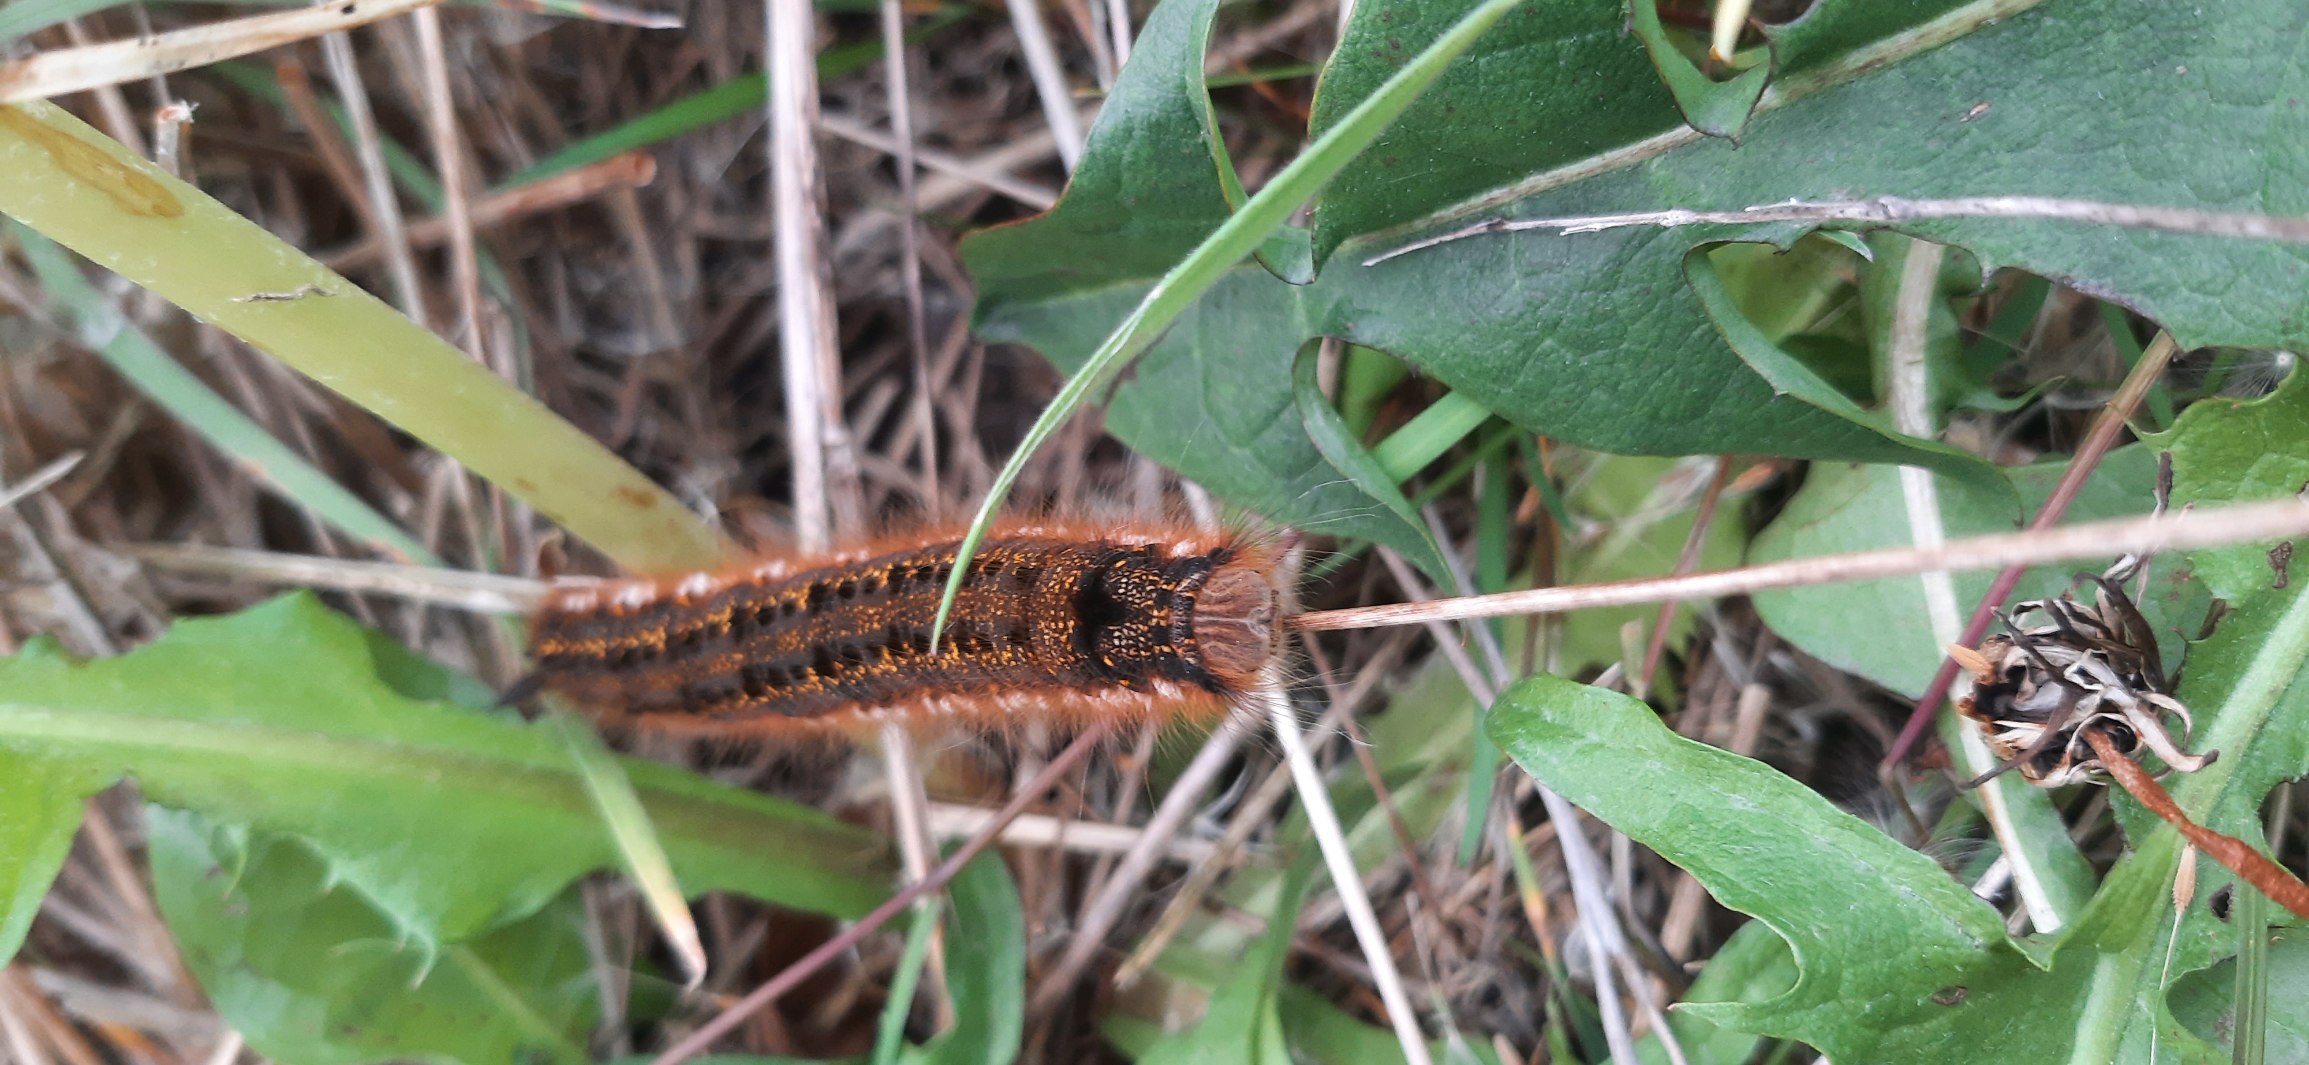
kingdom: Animalia
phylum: Arthropoda
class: Insecta
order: Lepidoptera
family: Lasiocampidae
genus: Euthrix
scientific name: Euthrix potatoria
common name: Græsspinder
